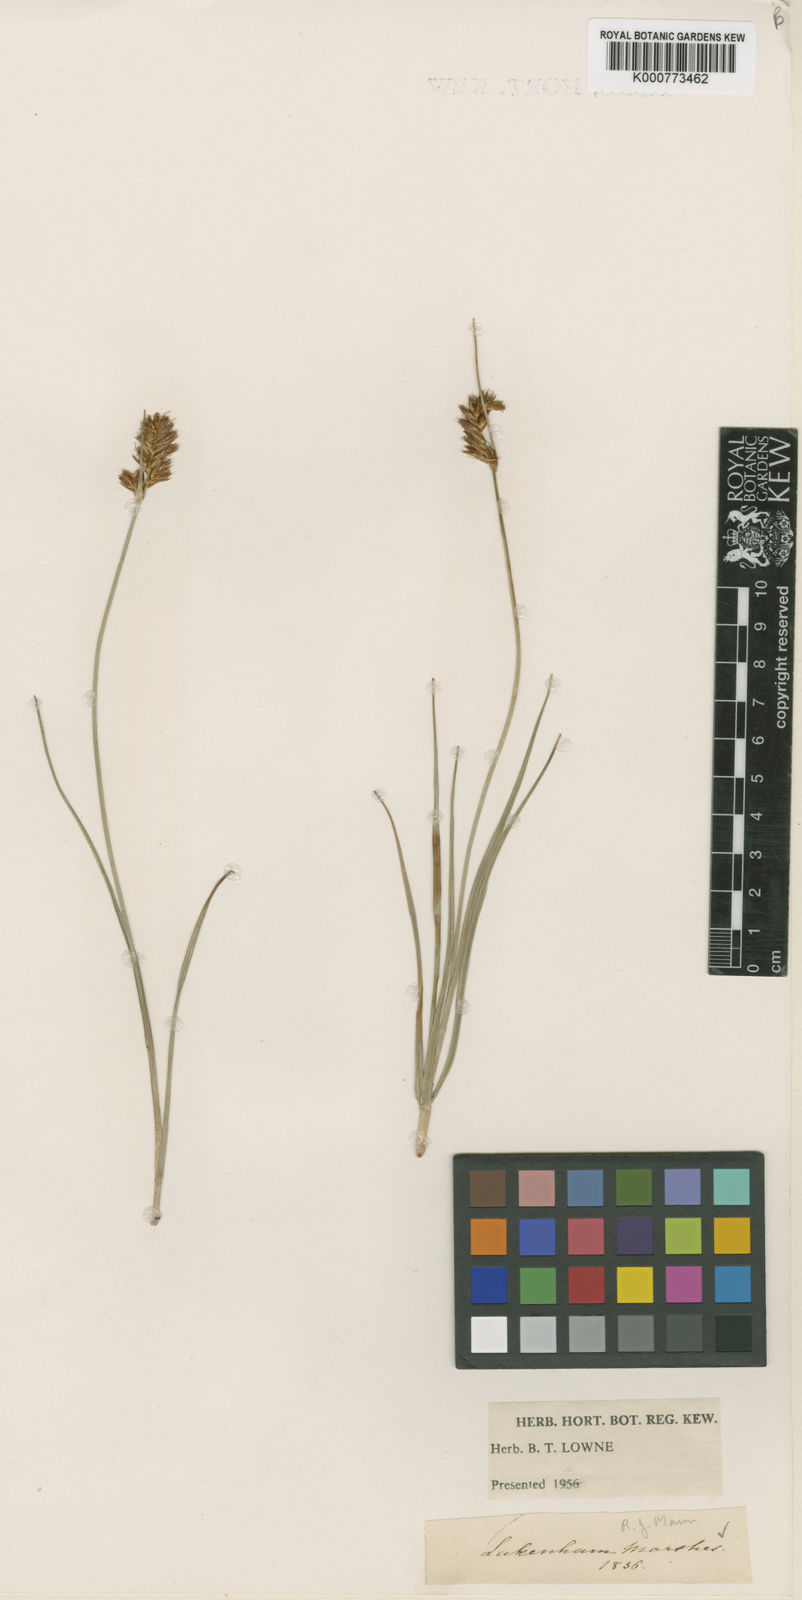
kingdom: Plantae
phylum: Tracheophyta
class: Liliopsida
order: Poales
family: Cyperaceae
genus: Blysmus
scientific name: Blysmus compressus
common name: Flat-sedge
